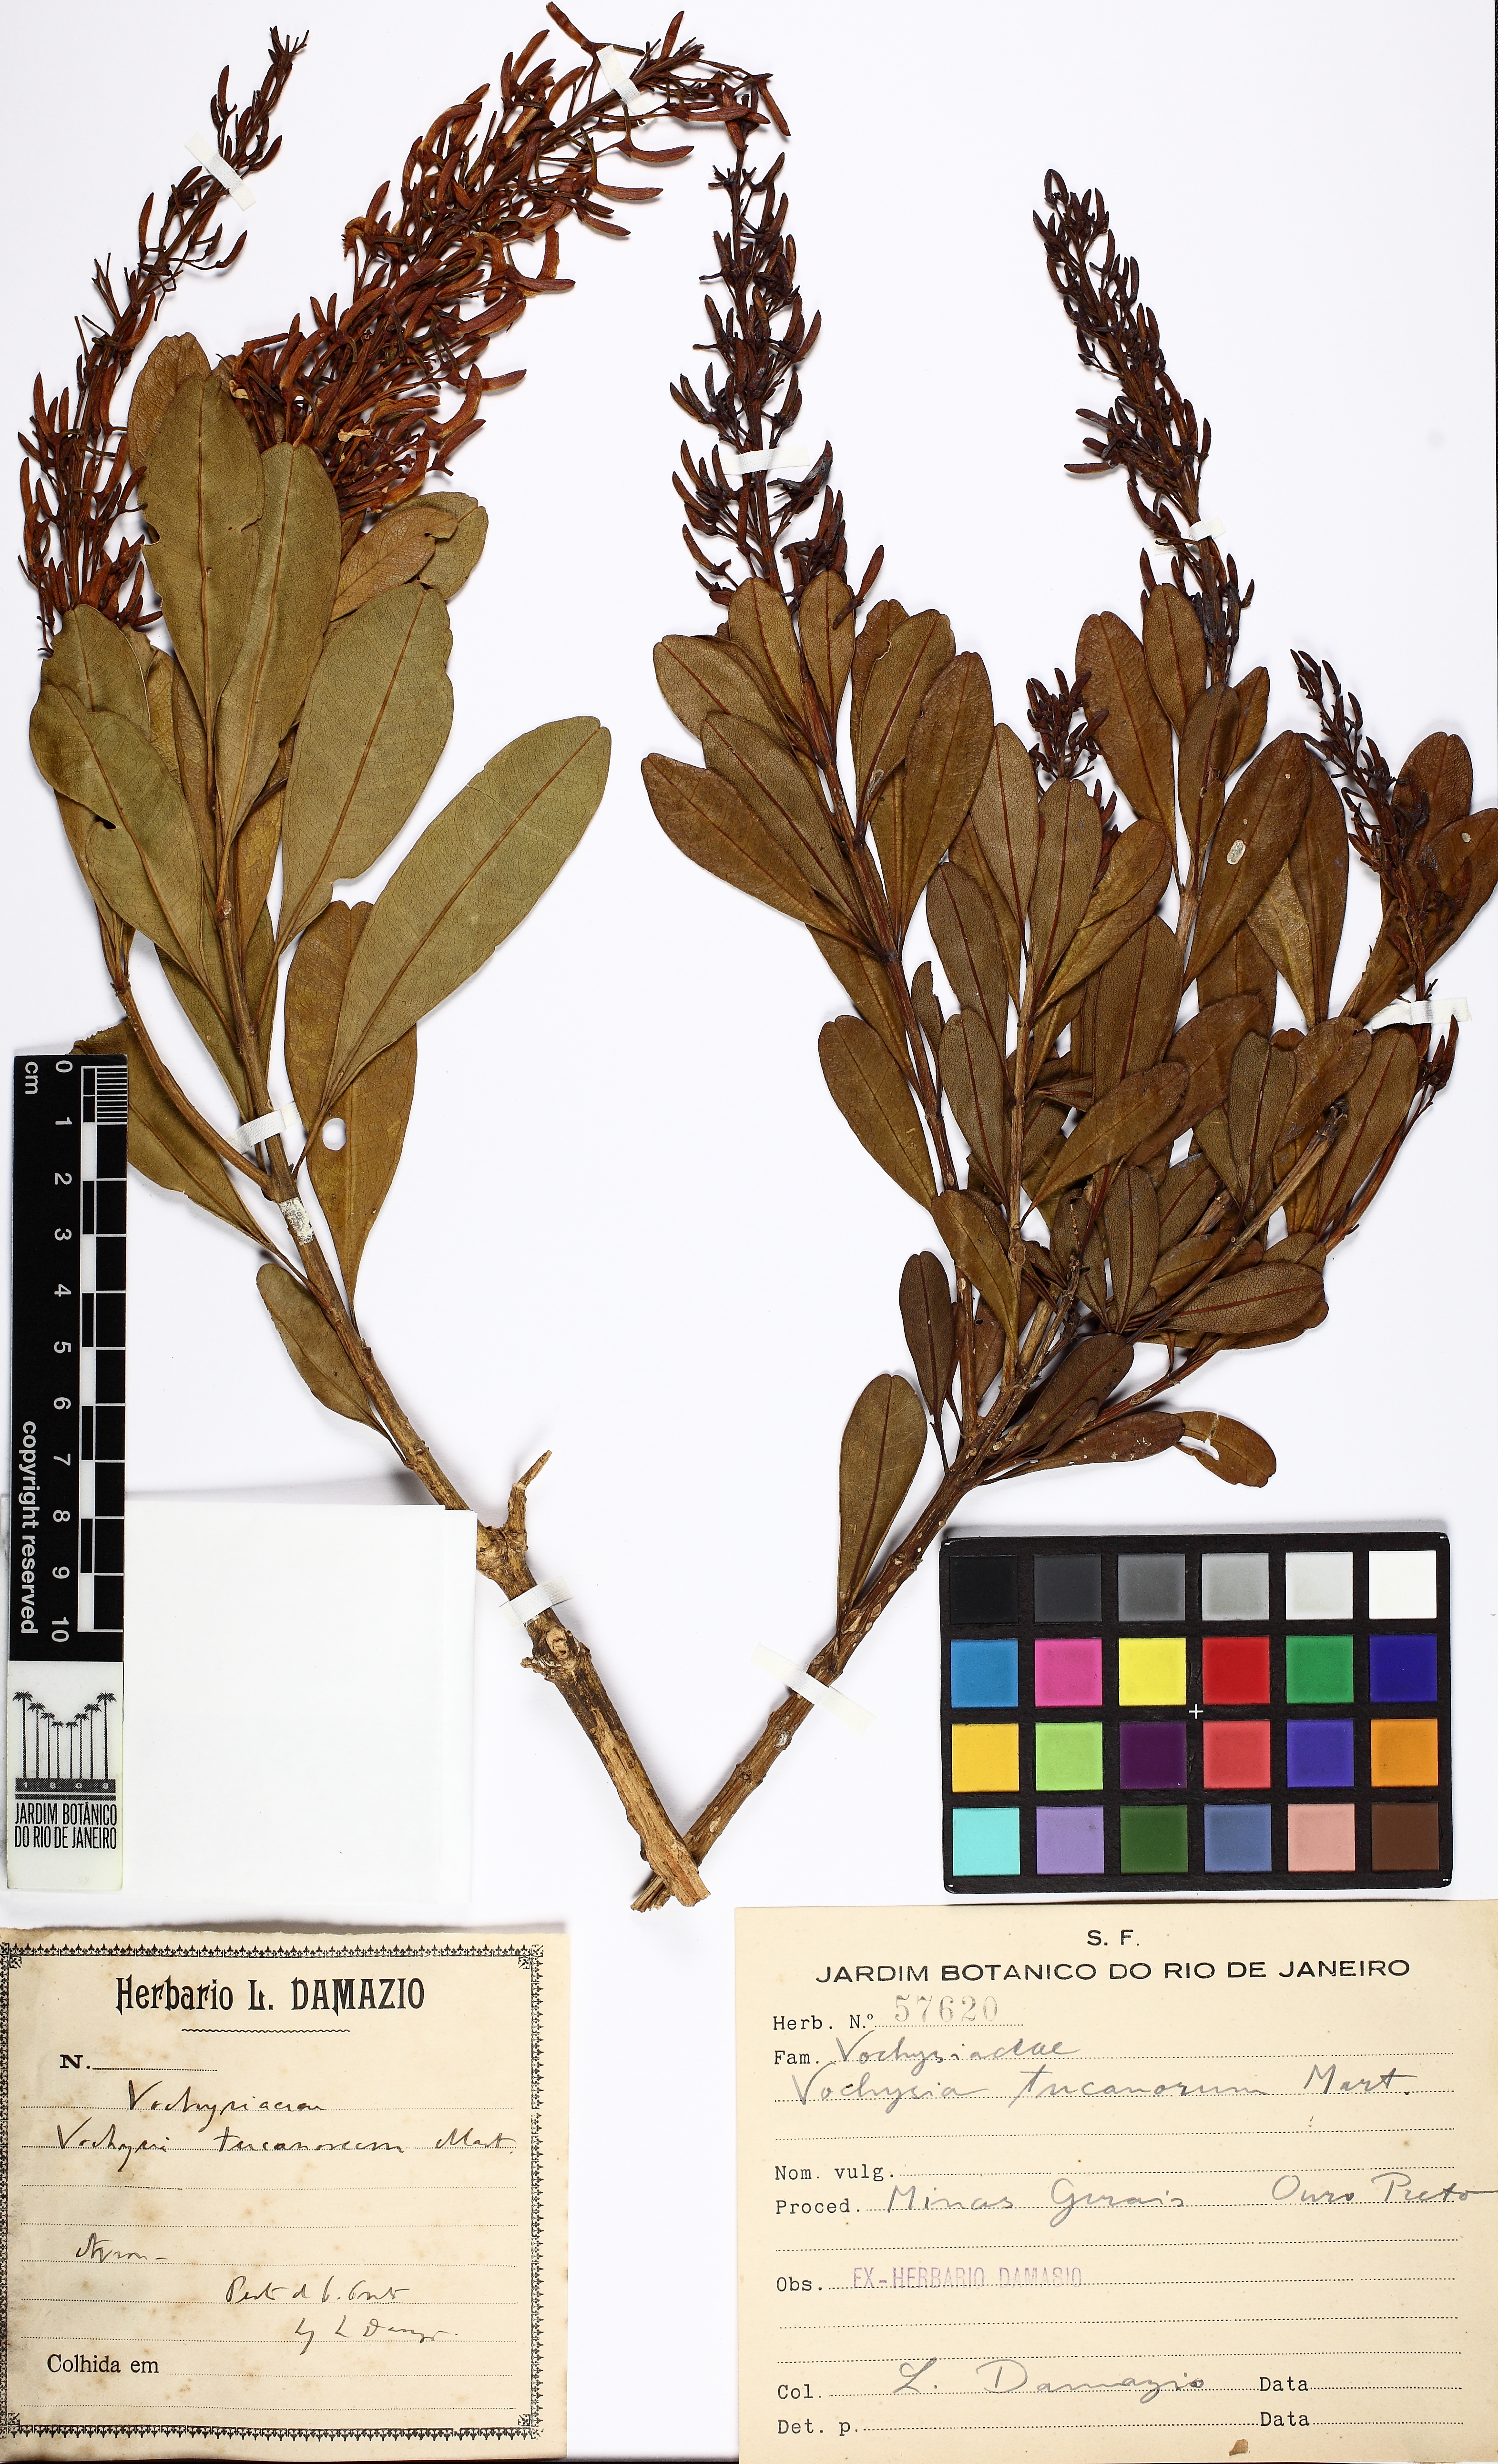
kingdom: Plantae
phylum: Tracheophyta
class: Magnoliopsida
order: Myrtales
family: Vochysiaceae
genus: Vochysia
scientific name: Vochysia tucanorum
